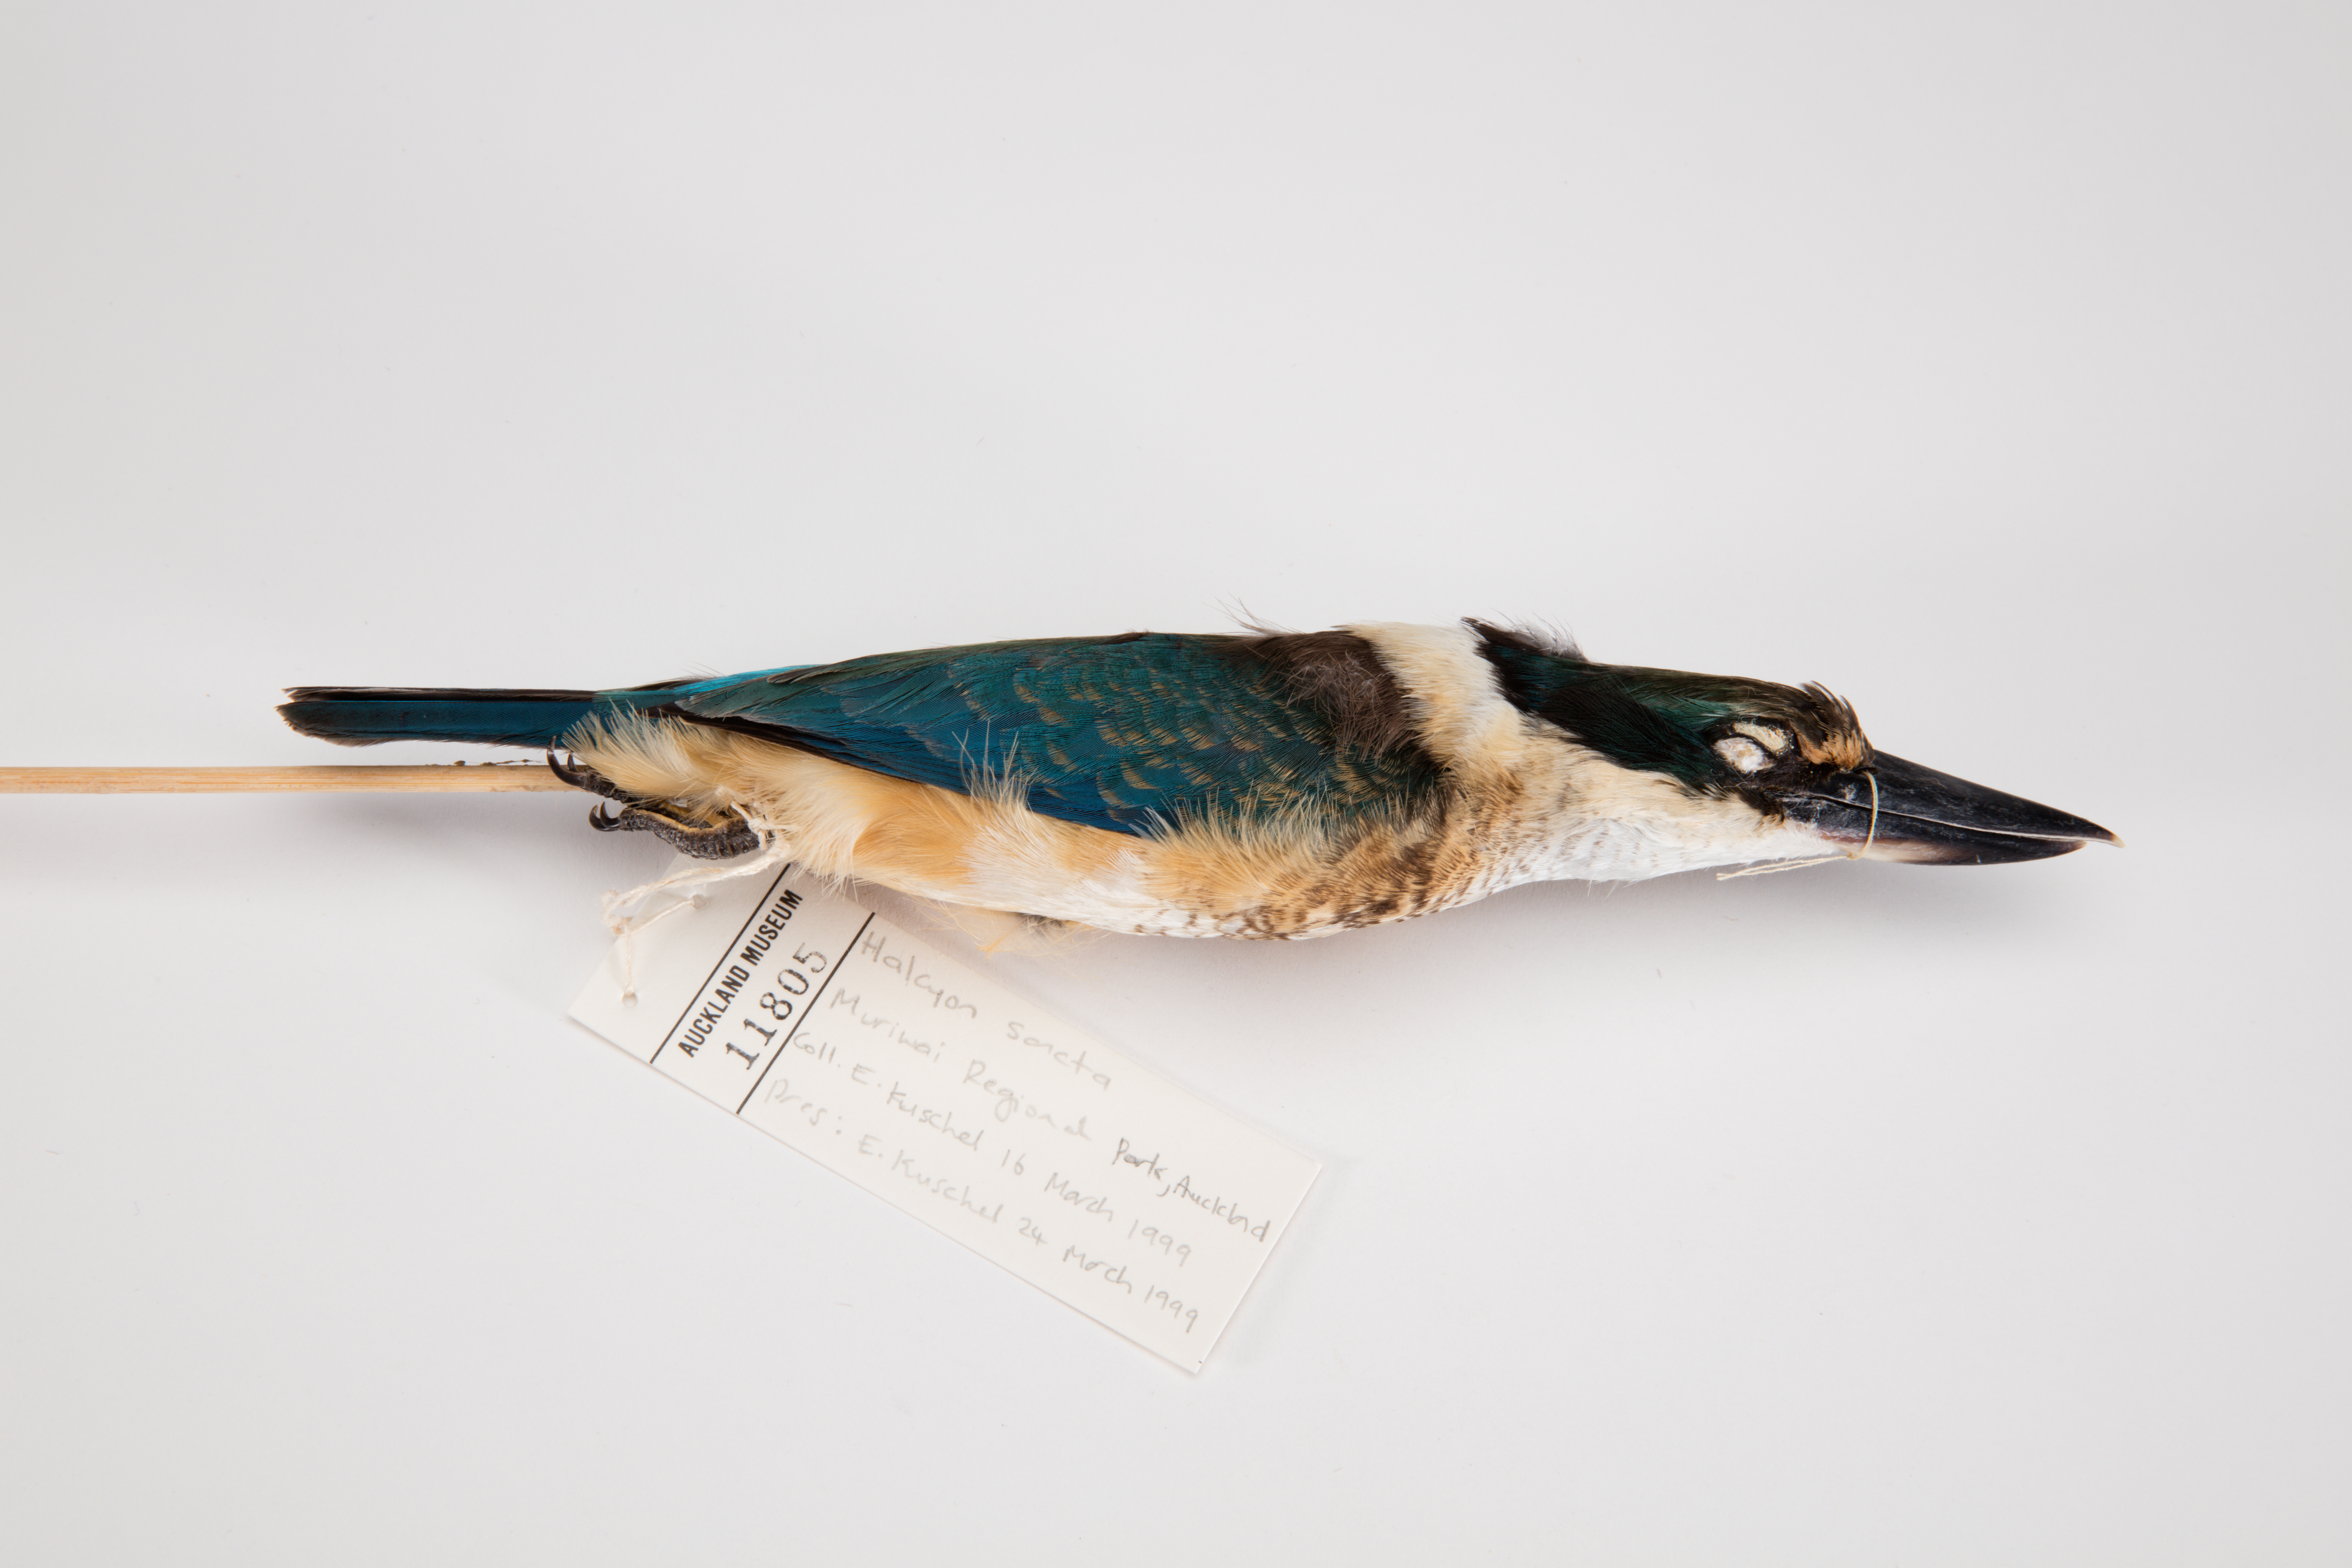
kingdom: Animalia
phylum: Chordata
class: Aves
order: Coraciiformes
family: Alcedinidae
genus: Todiramphus
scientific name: Todiramphus sanctus
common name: Sacred kingfisher
